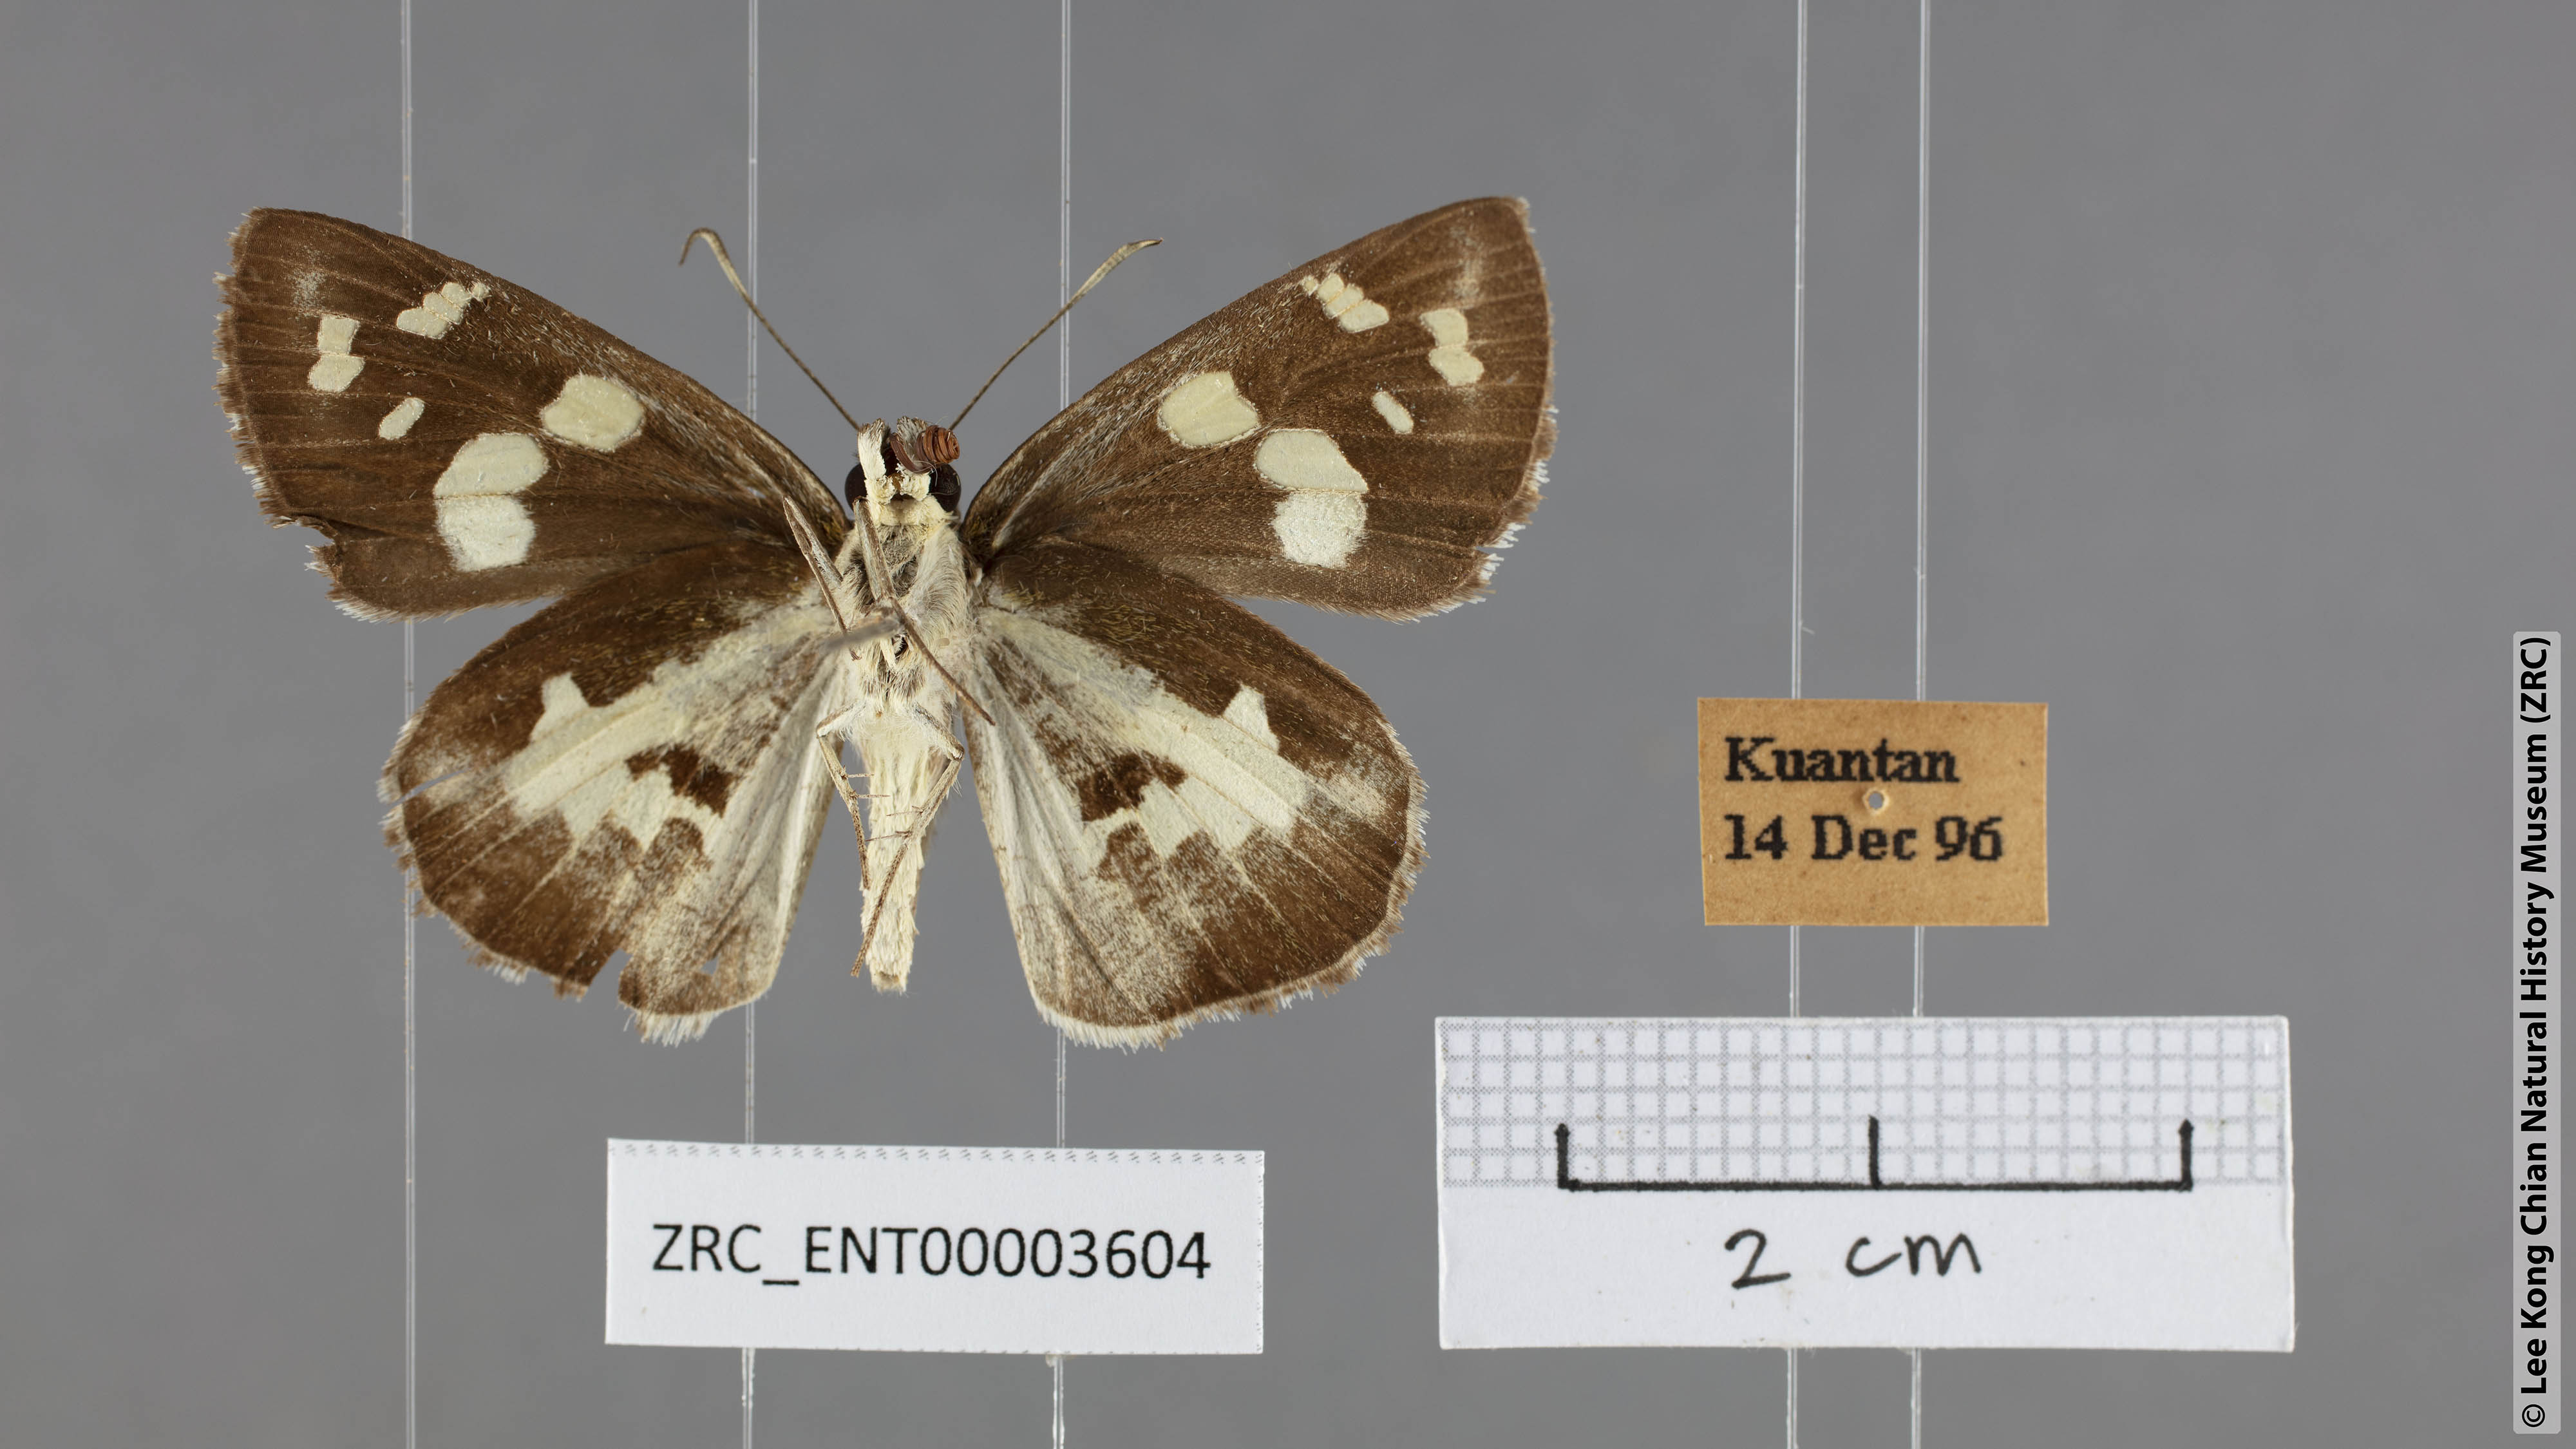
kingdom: Animalia
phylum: Arthropoda
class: Insecta
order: Lepidoptera
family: Hesperiidae
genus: Udaspes
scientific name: Udaspes folus
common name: Grass demon
